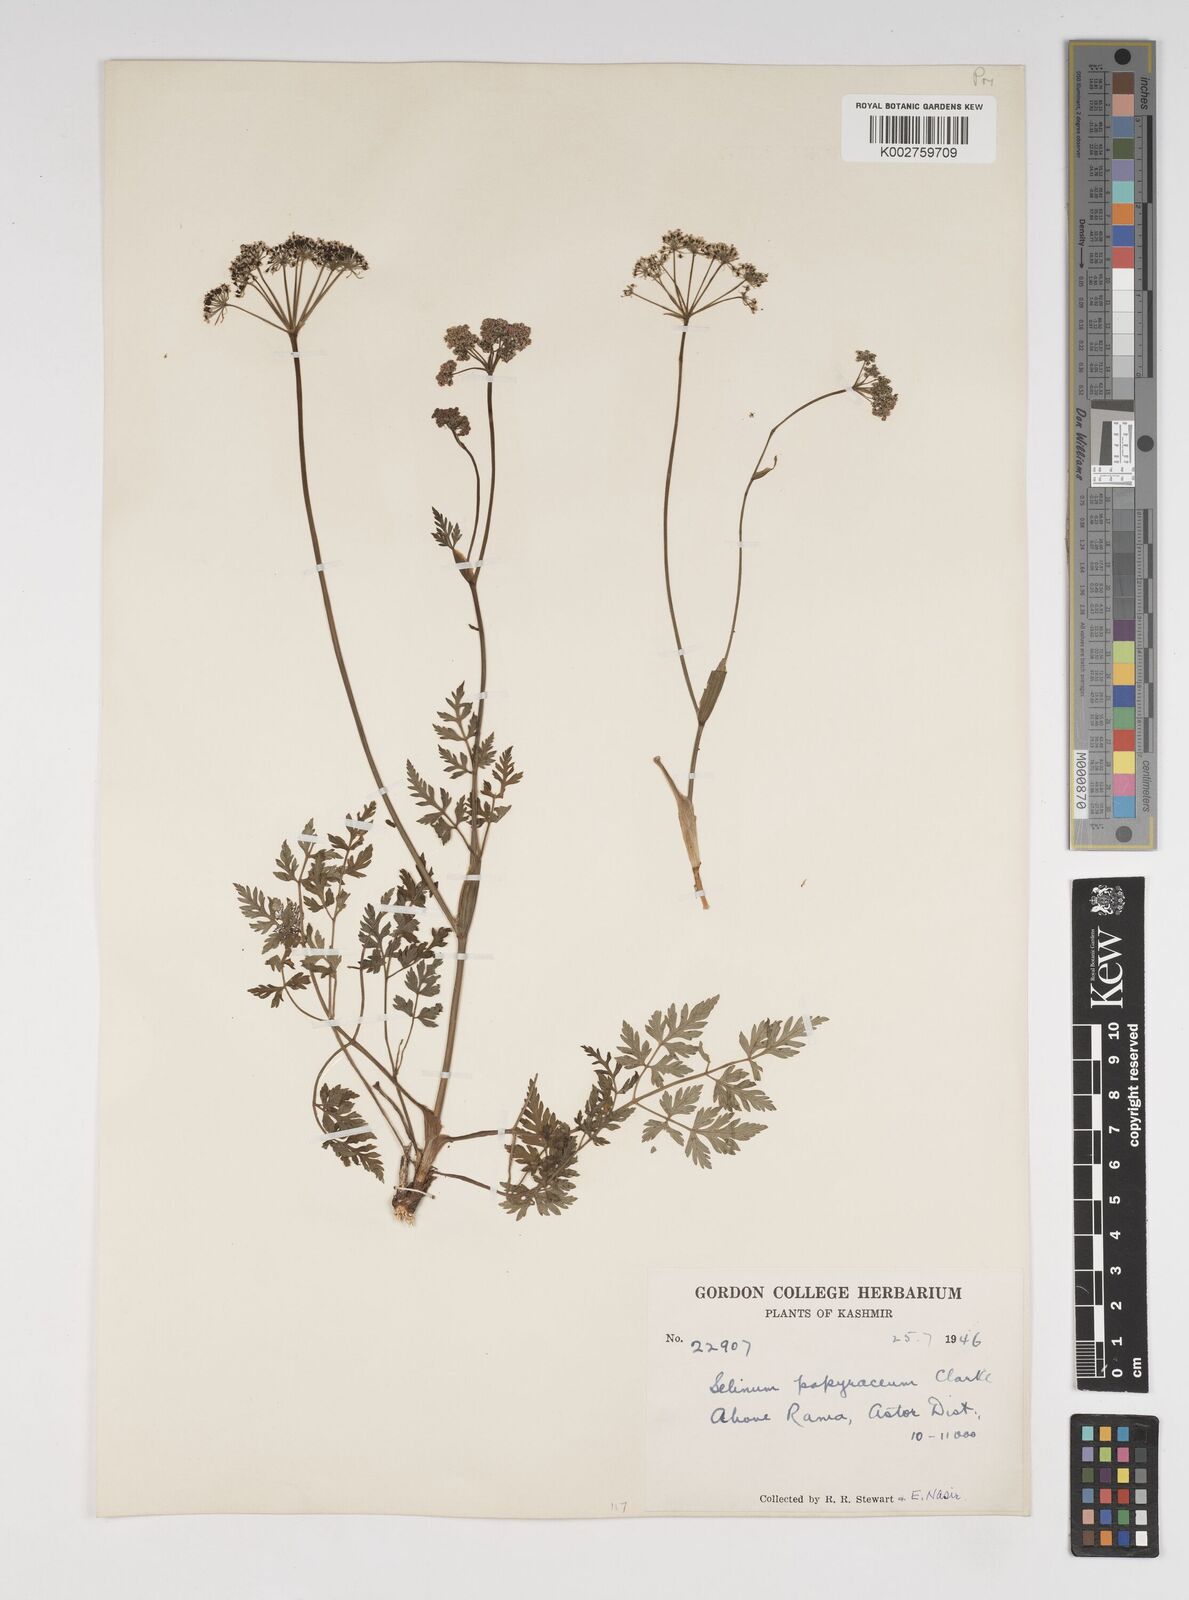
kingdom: Plantae
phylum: Tracheophyta
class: Magnoliopsida
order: Apiales
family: Apiaceae
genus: Conioselinum
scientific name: Conioselinum tataricum
